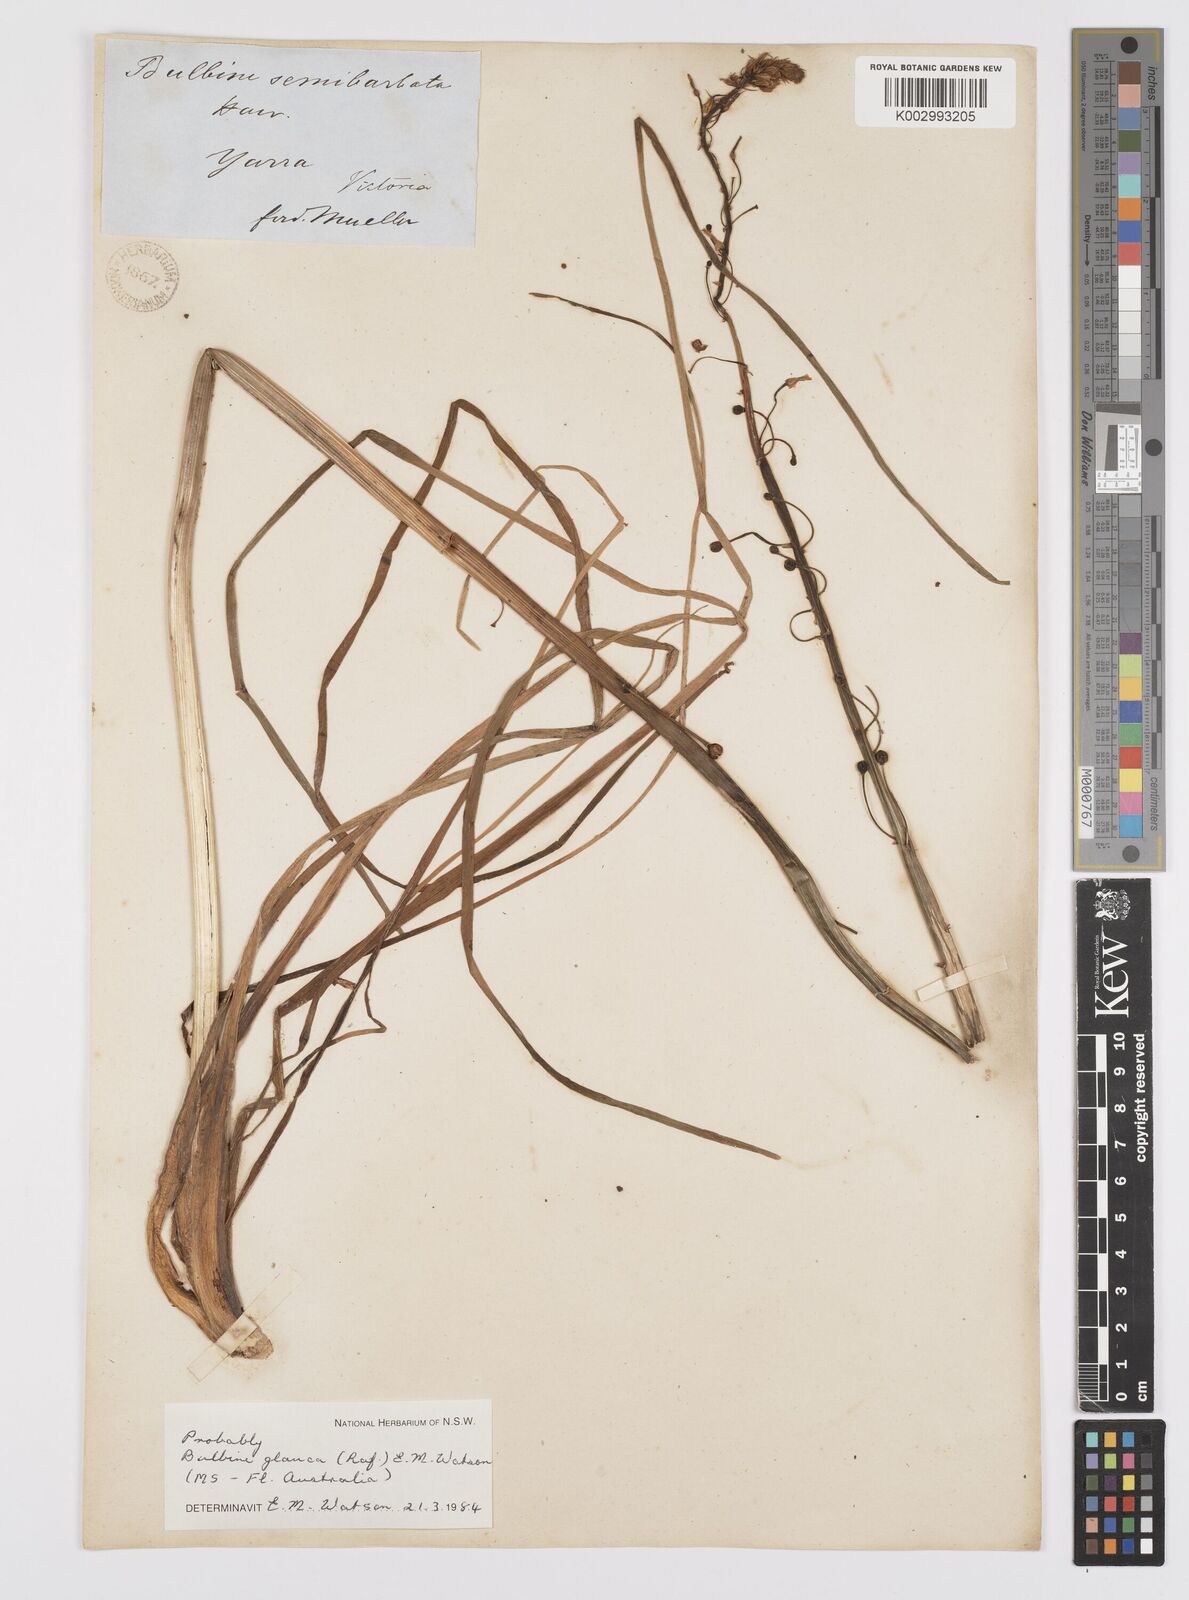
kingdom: Plantae
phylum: Tracheophyta
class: Liliopsida
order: Asparagales
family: Asphodelaceae
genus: Bulbine
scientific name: Bulbine glauca
